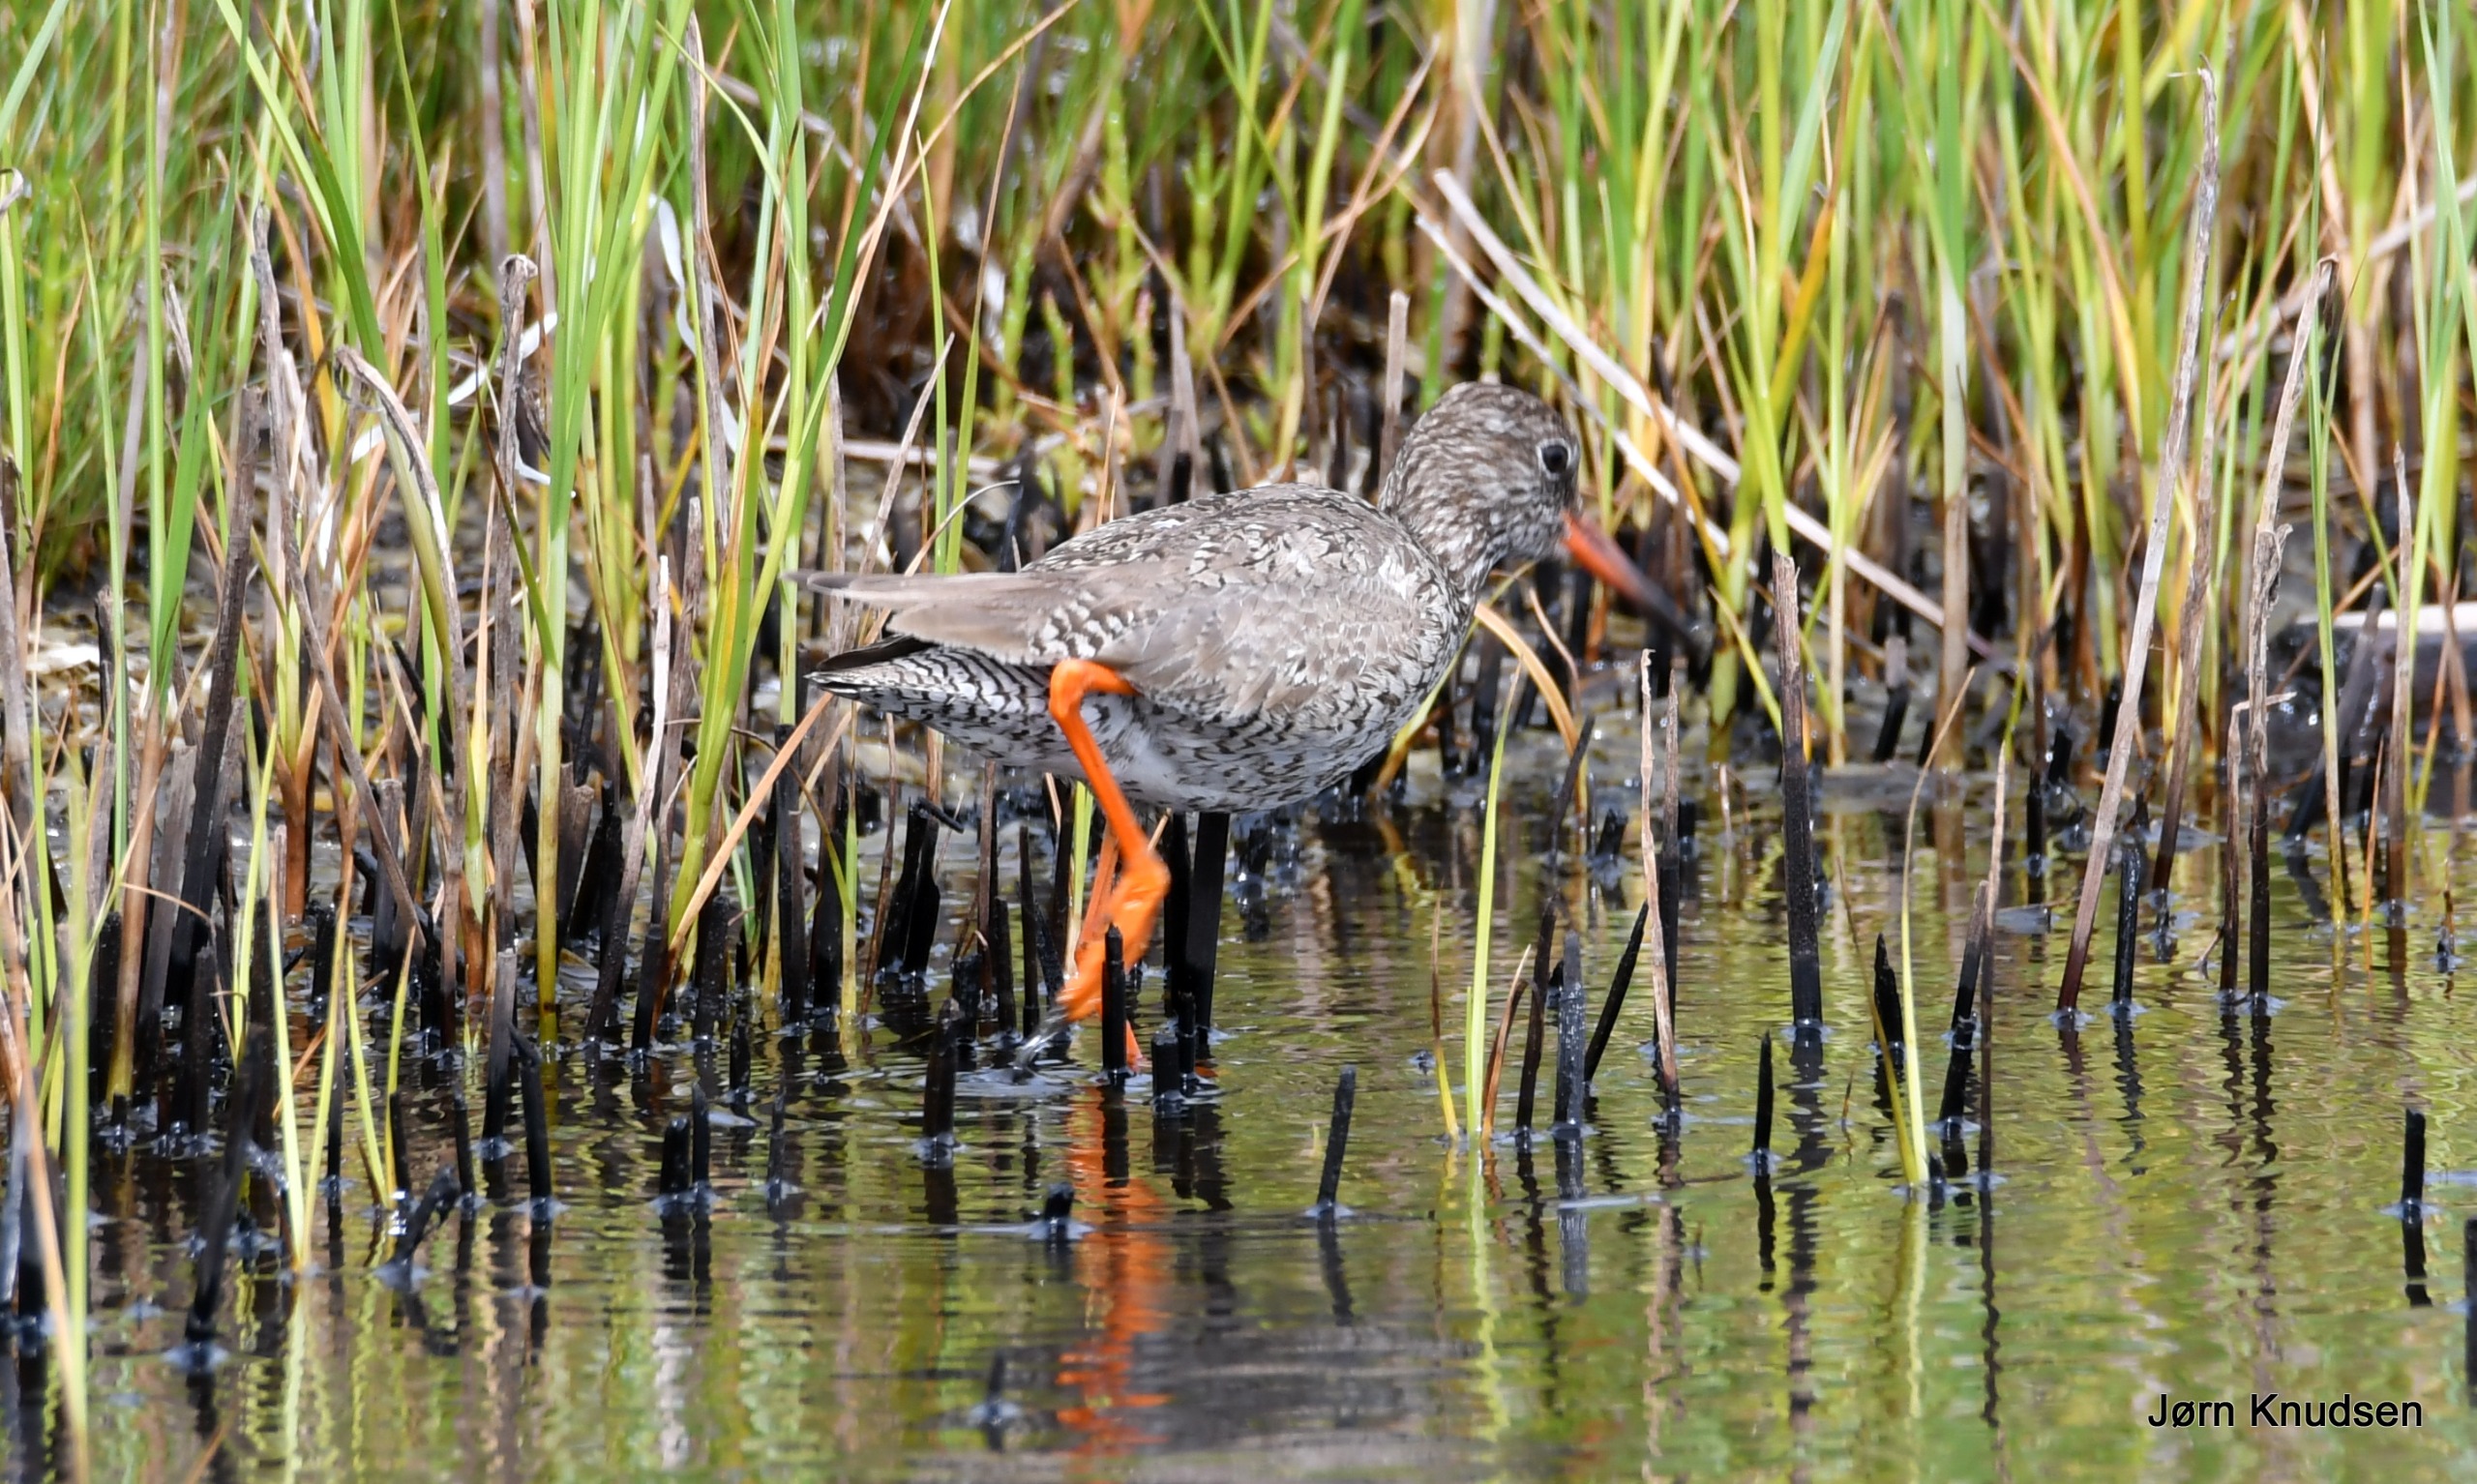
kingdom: Animalia
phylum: Chordata
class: Aves
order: Charadriiformes
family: Scolopacidae
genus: Tringa
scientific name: Tringa totanus
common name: Rødben
